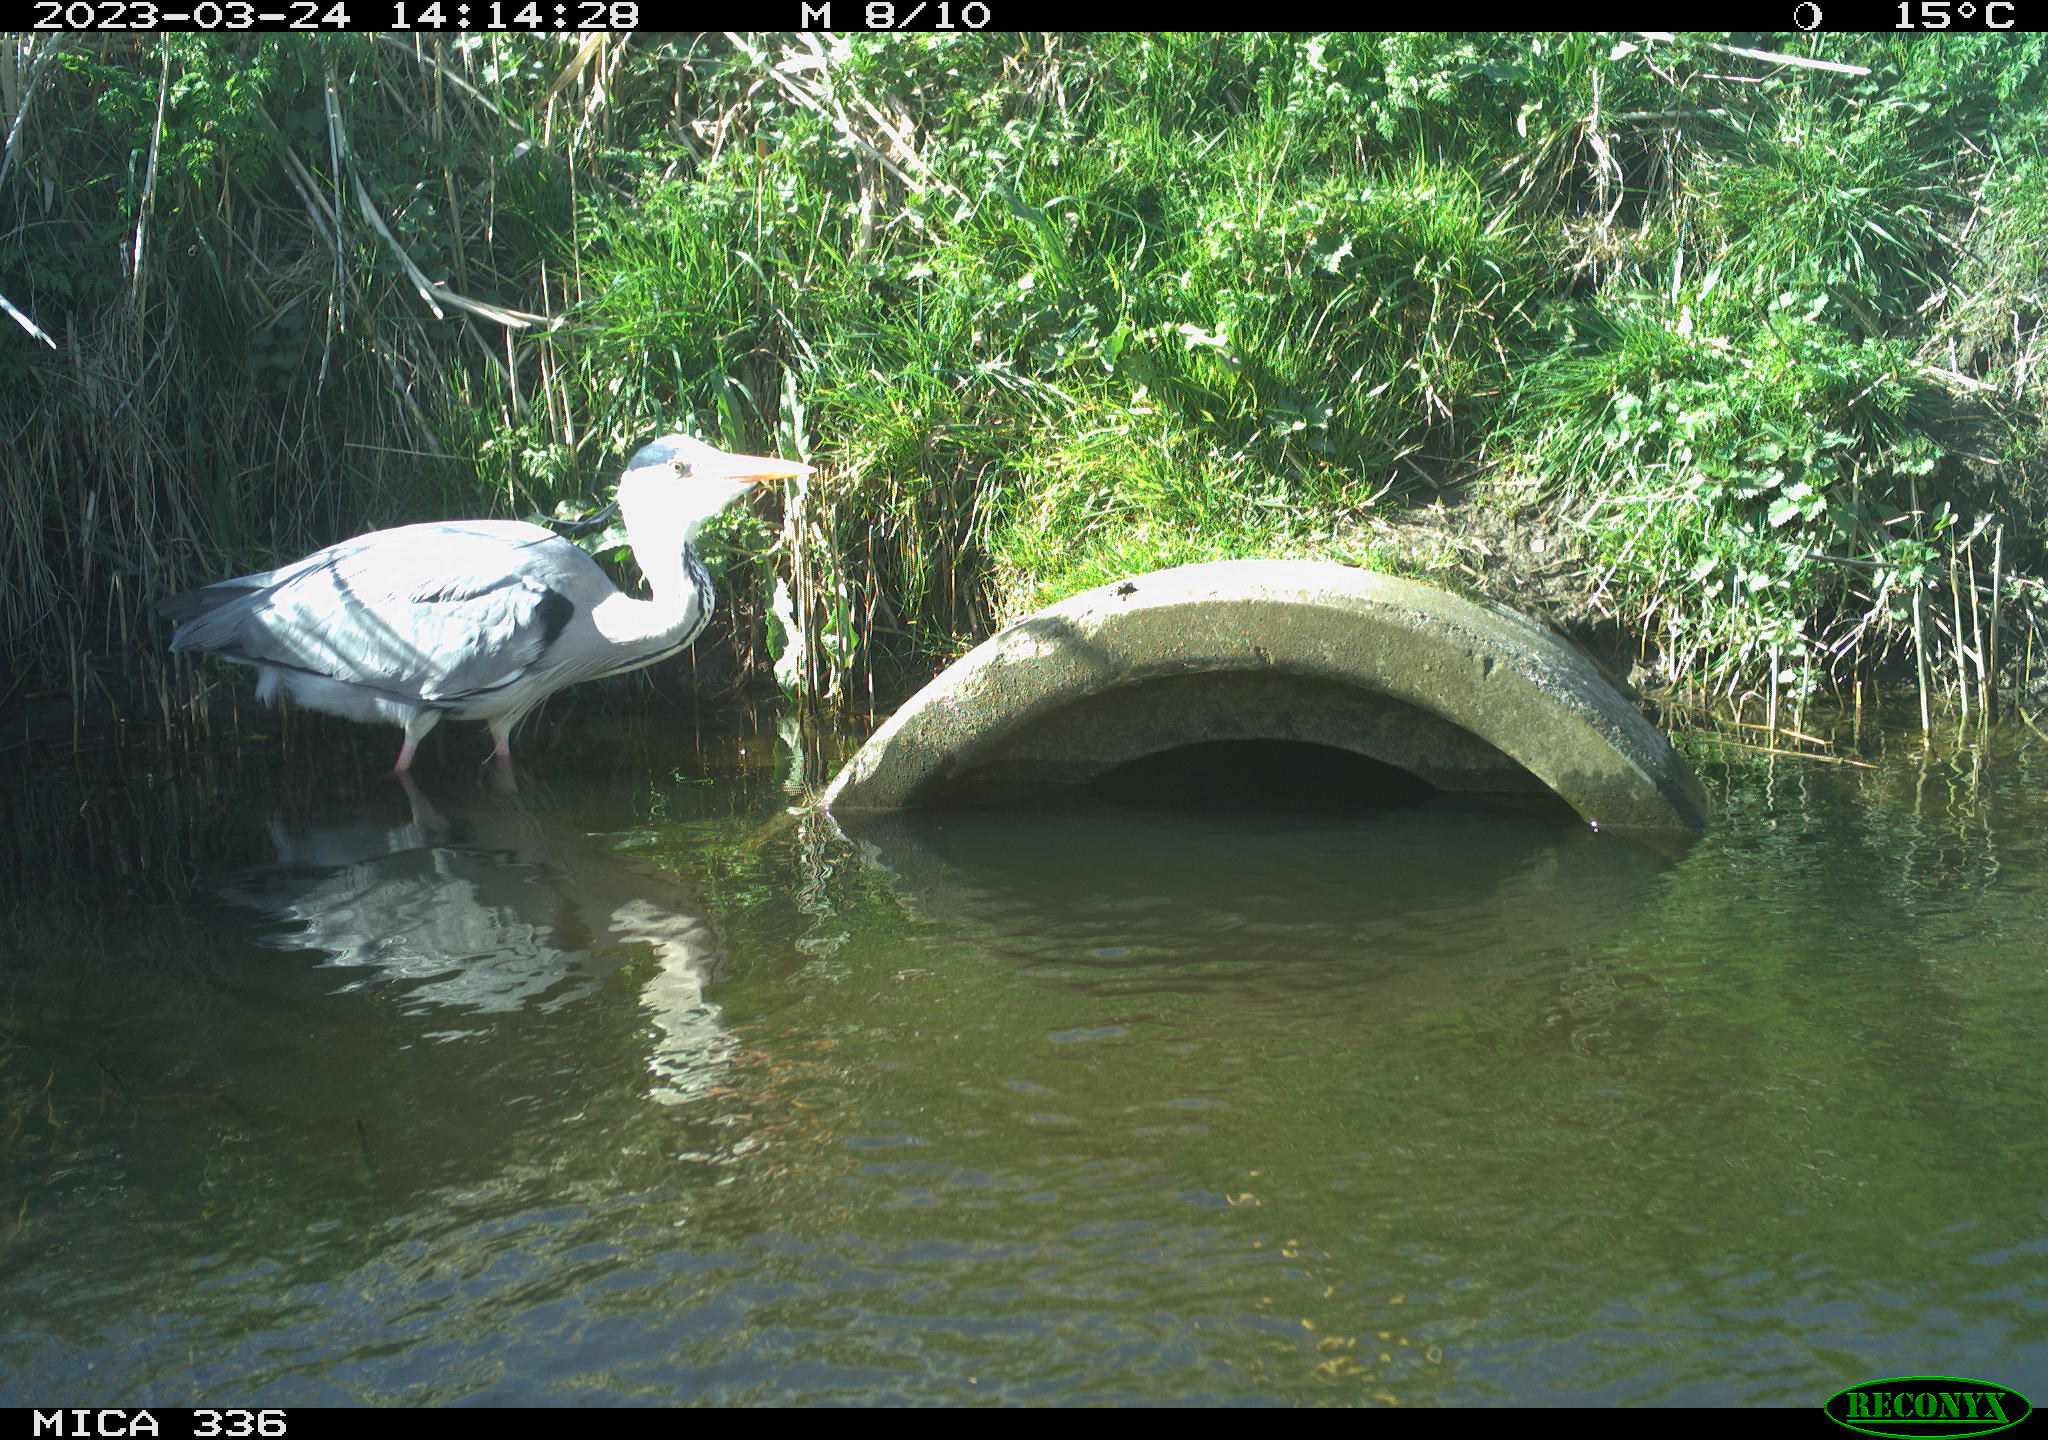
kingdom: Animalia
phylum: Chordata
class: Aves
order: Pelecaniformes
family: Ardeidae
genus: Ardea
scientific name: Ardea
